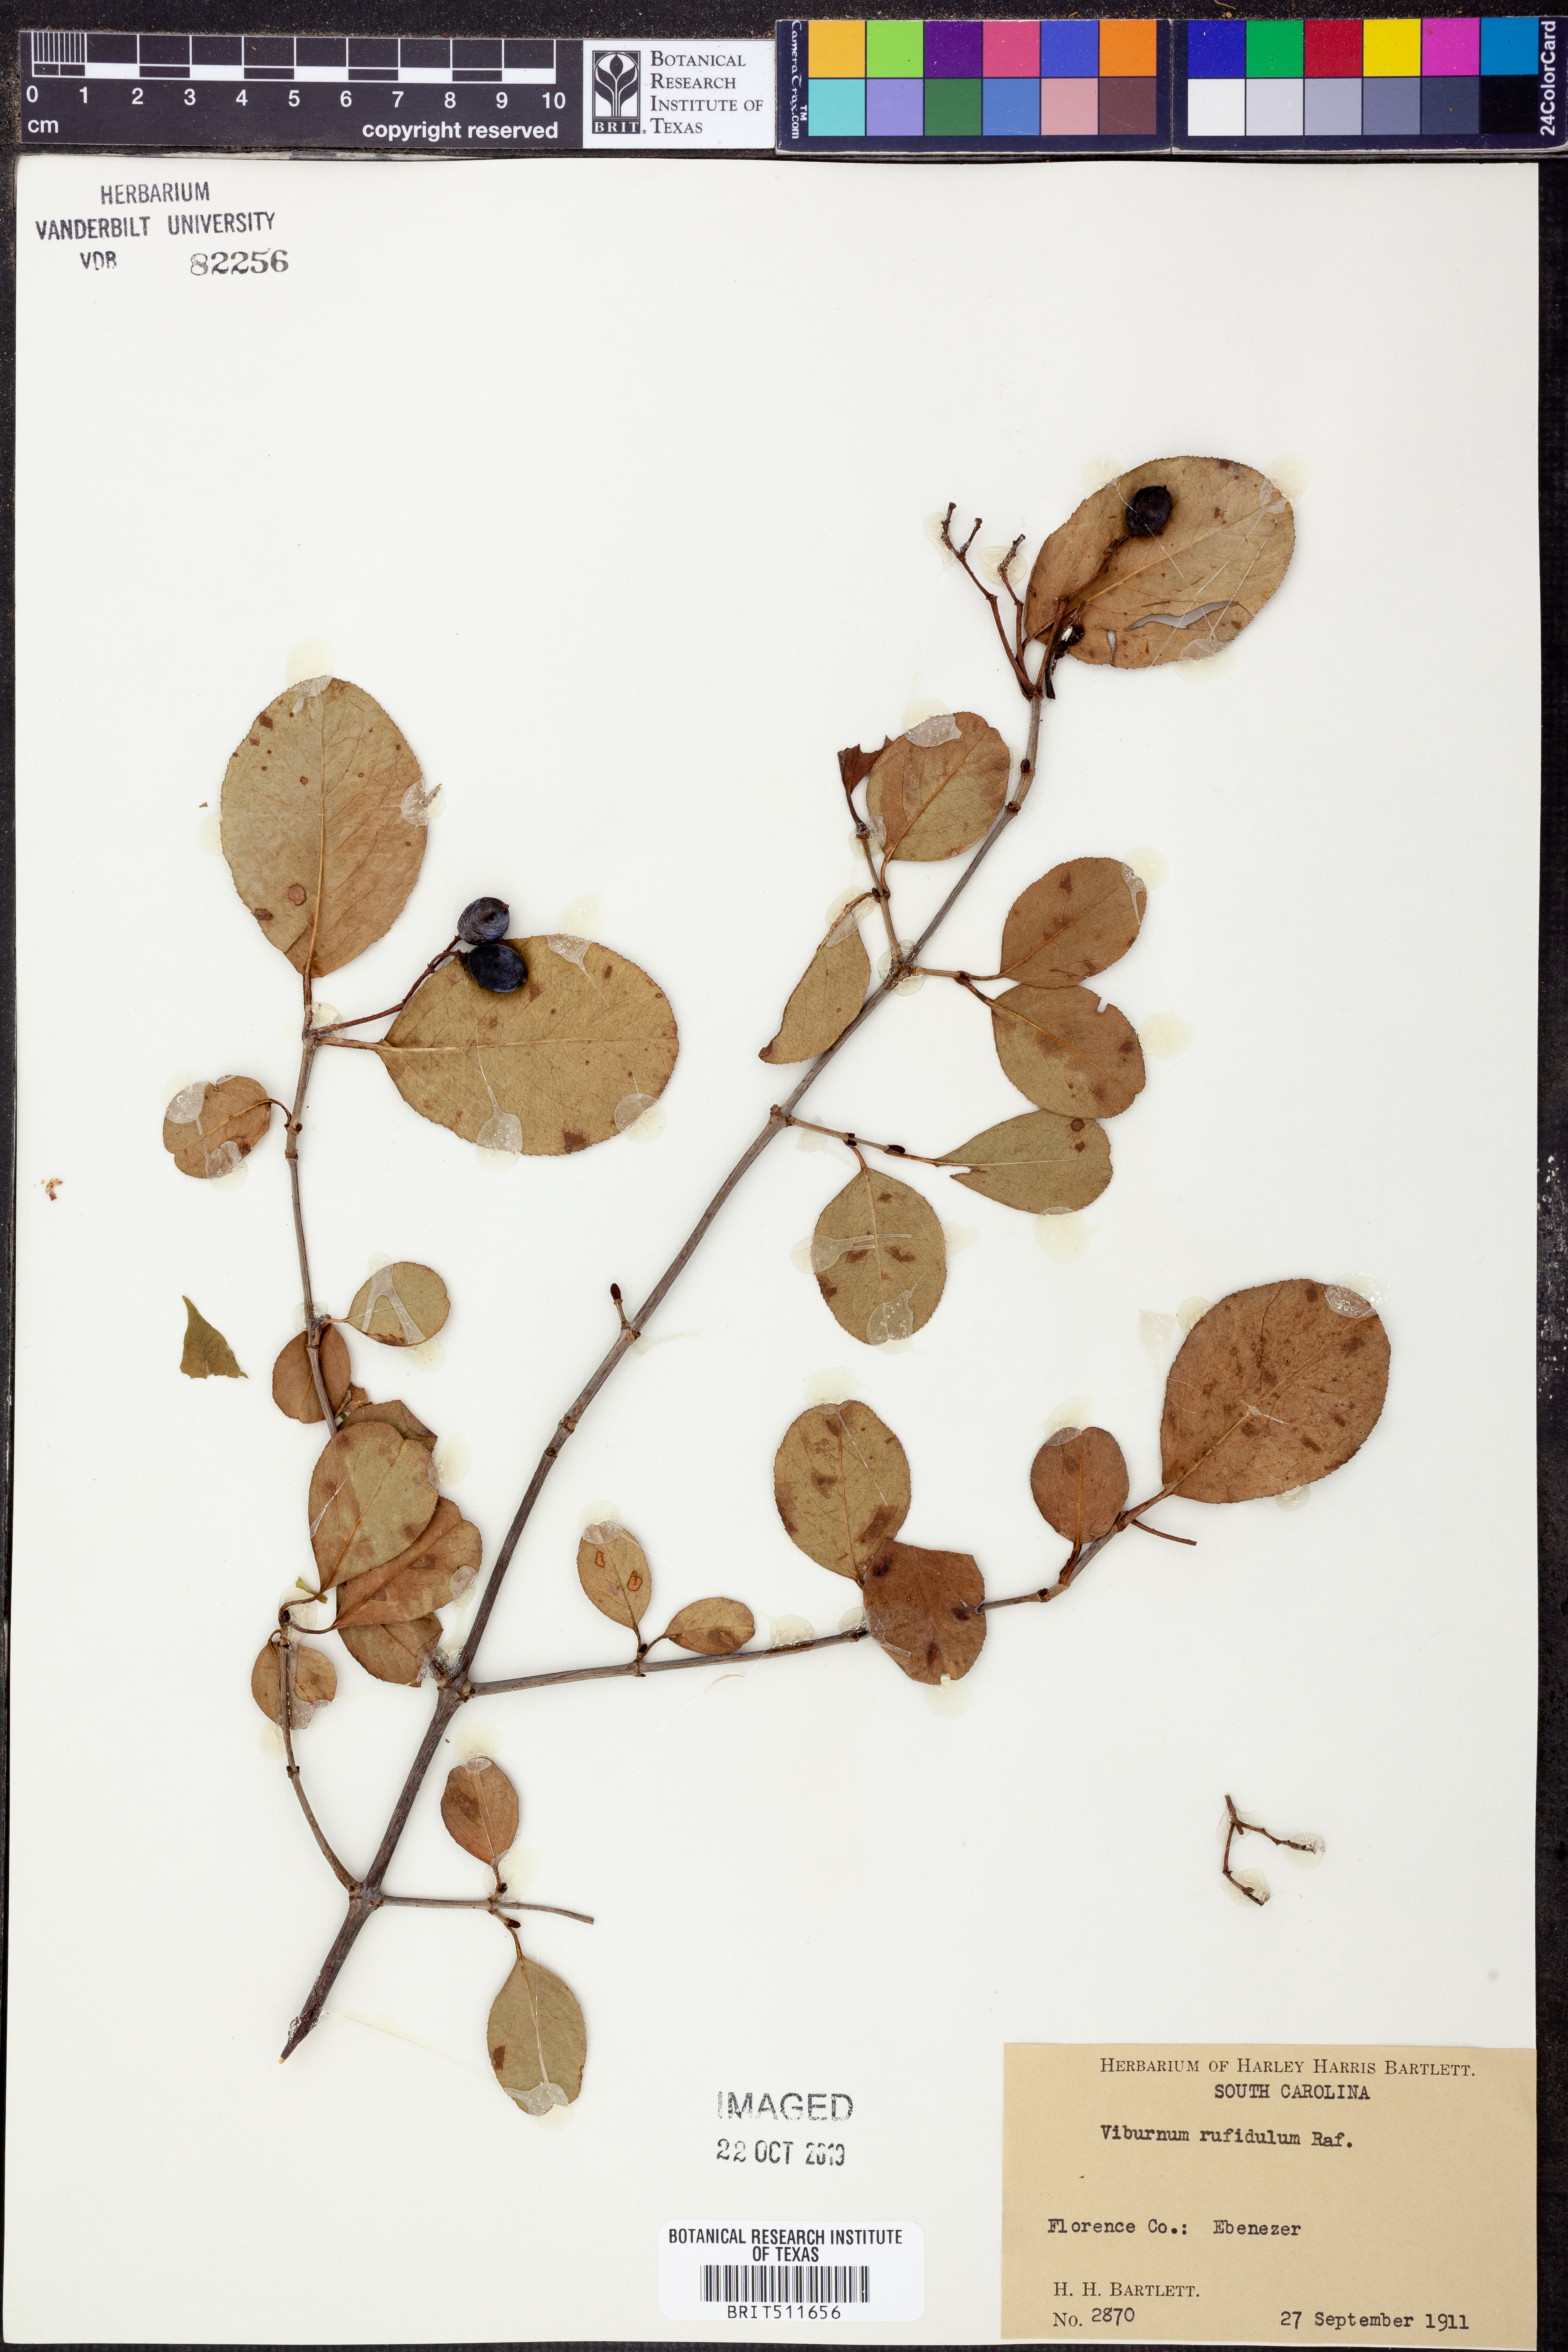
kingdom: Plantae
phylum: Tracheophyta
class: Magnoliopsida
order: Dipsacales
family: Viburnaceae
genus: Viburnum
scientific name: Viburnum rufidulum
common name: Blue haw
